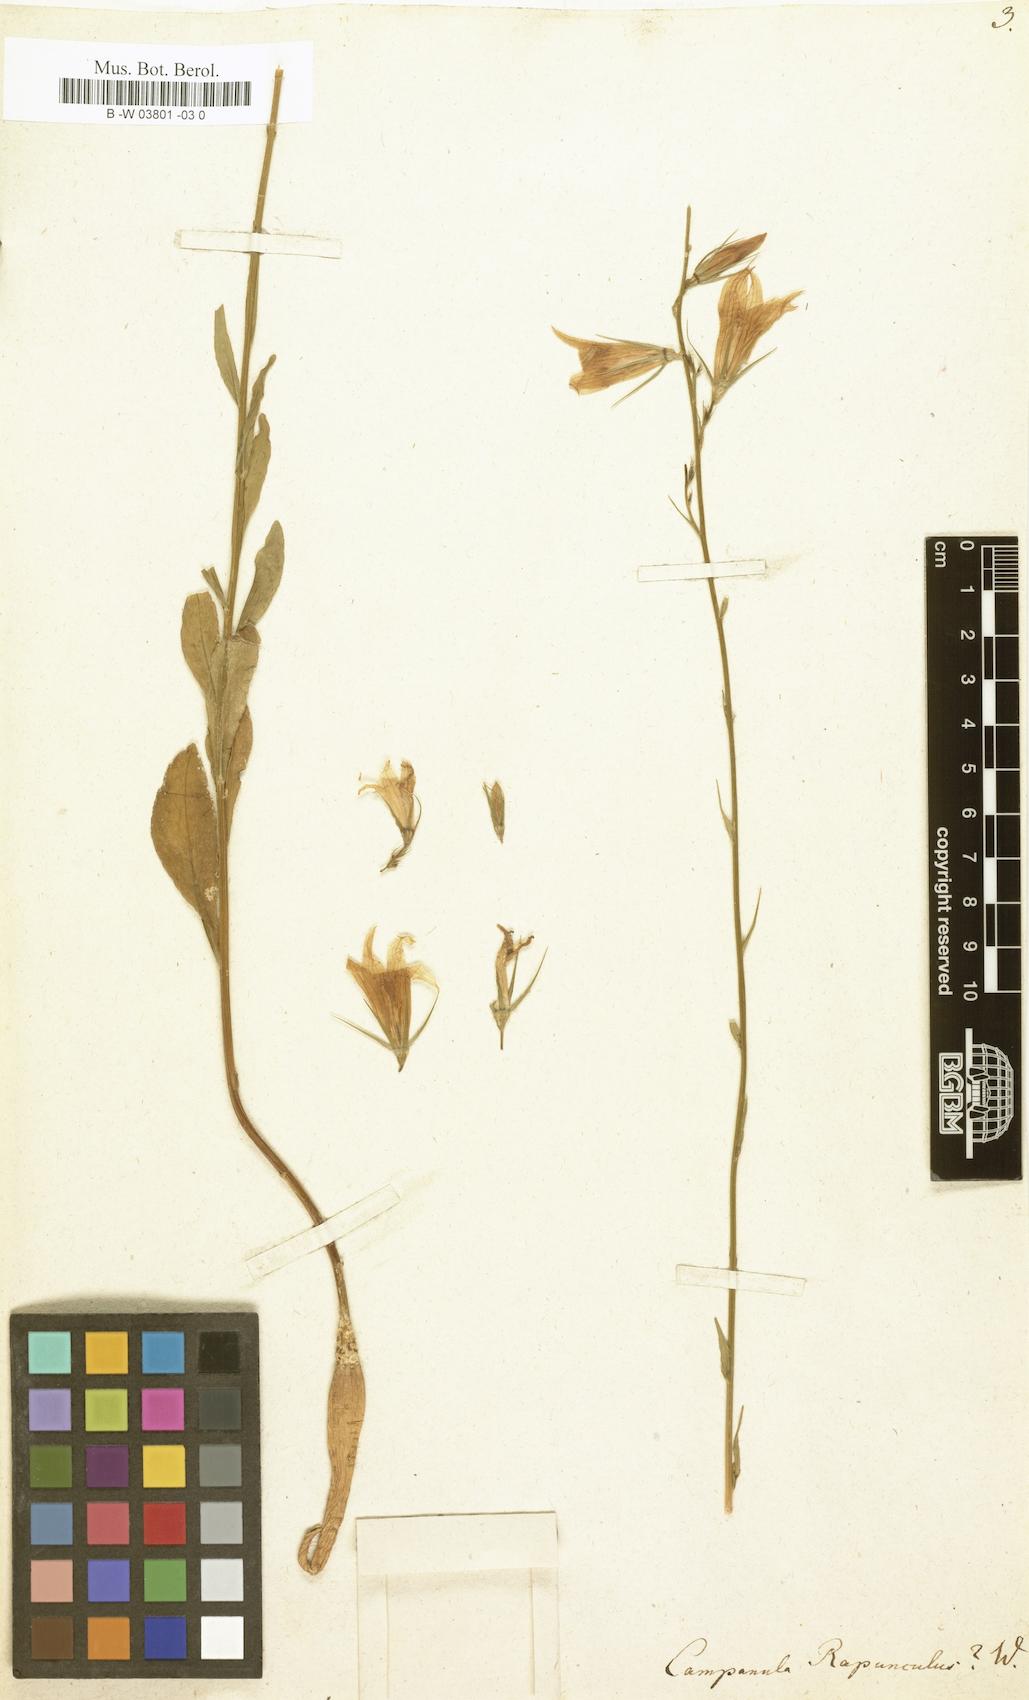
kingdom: Plantae
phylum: Tracheophyta
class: Magnoliopsida
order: Asterales
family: Campanulaceae
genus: Campanula
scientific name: Campanula rapunculus
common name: Rampion bellflower
